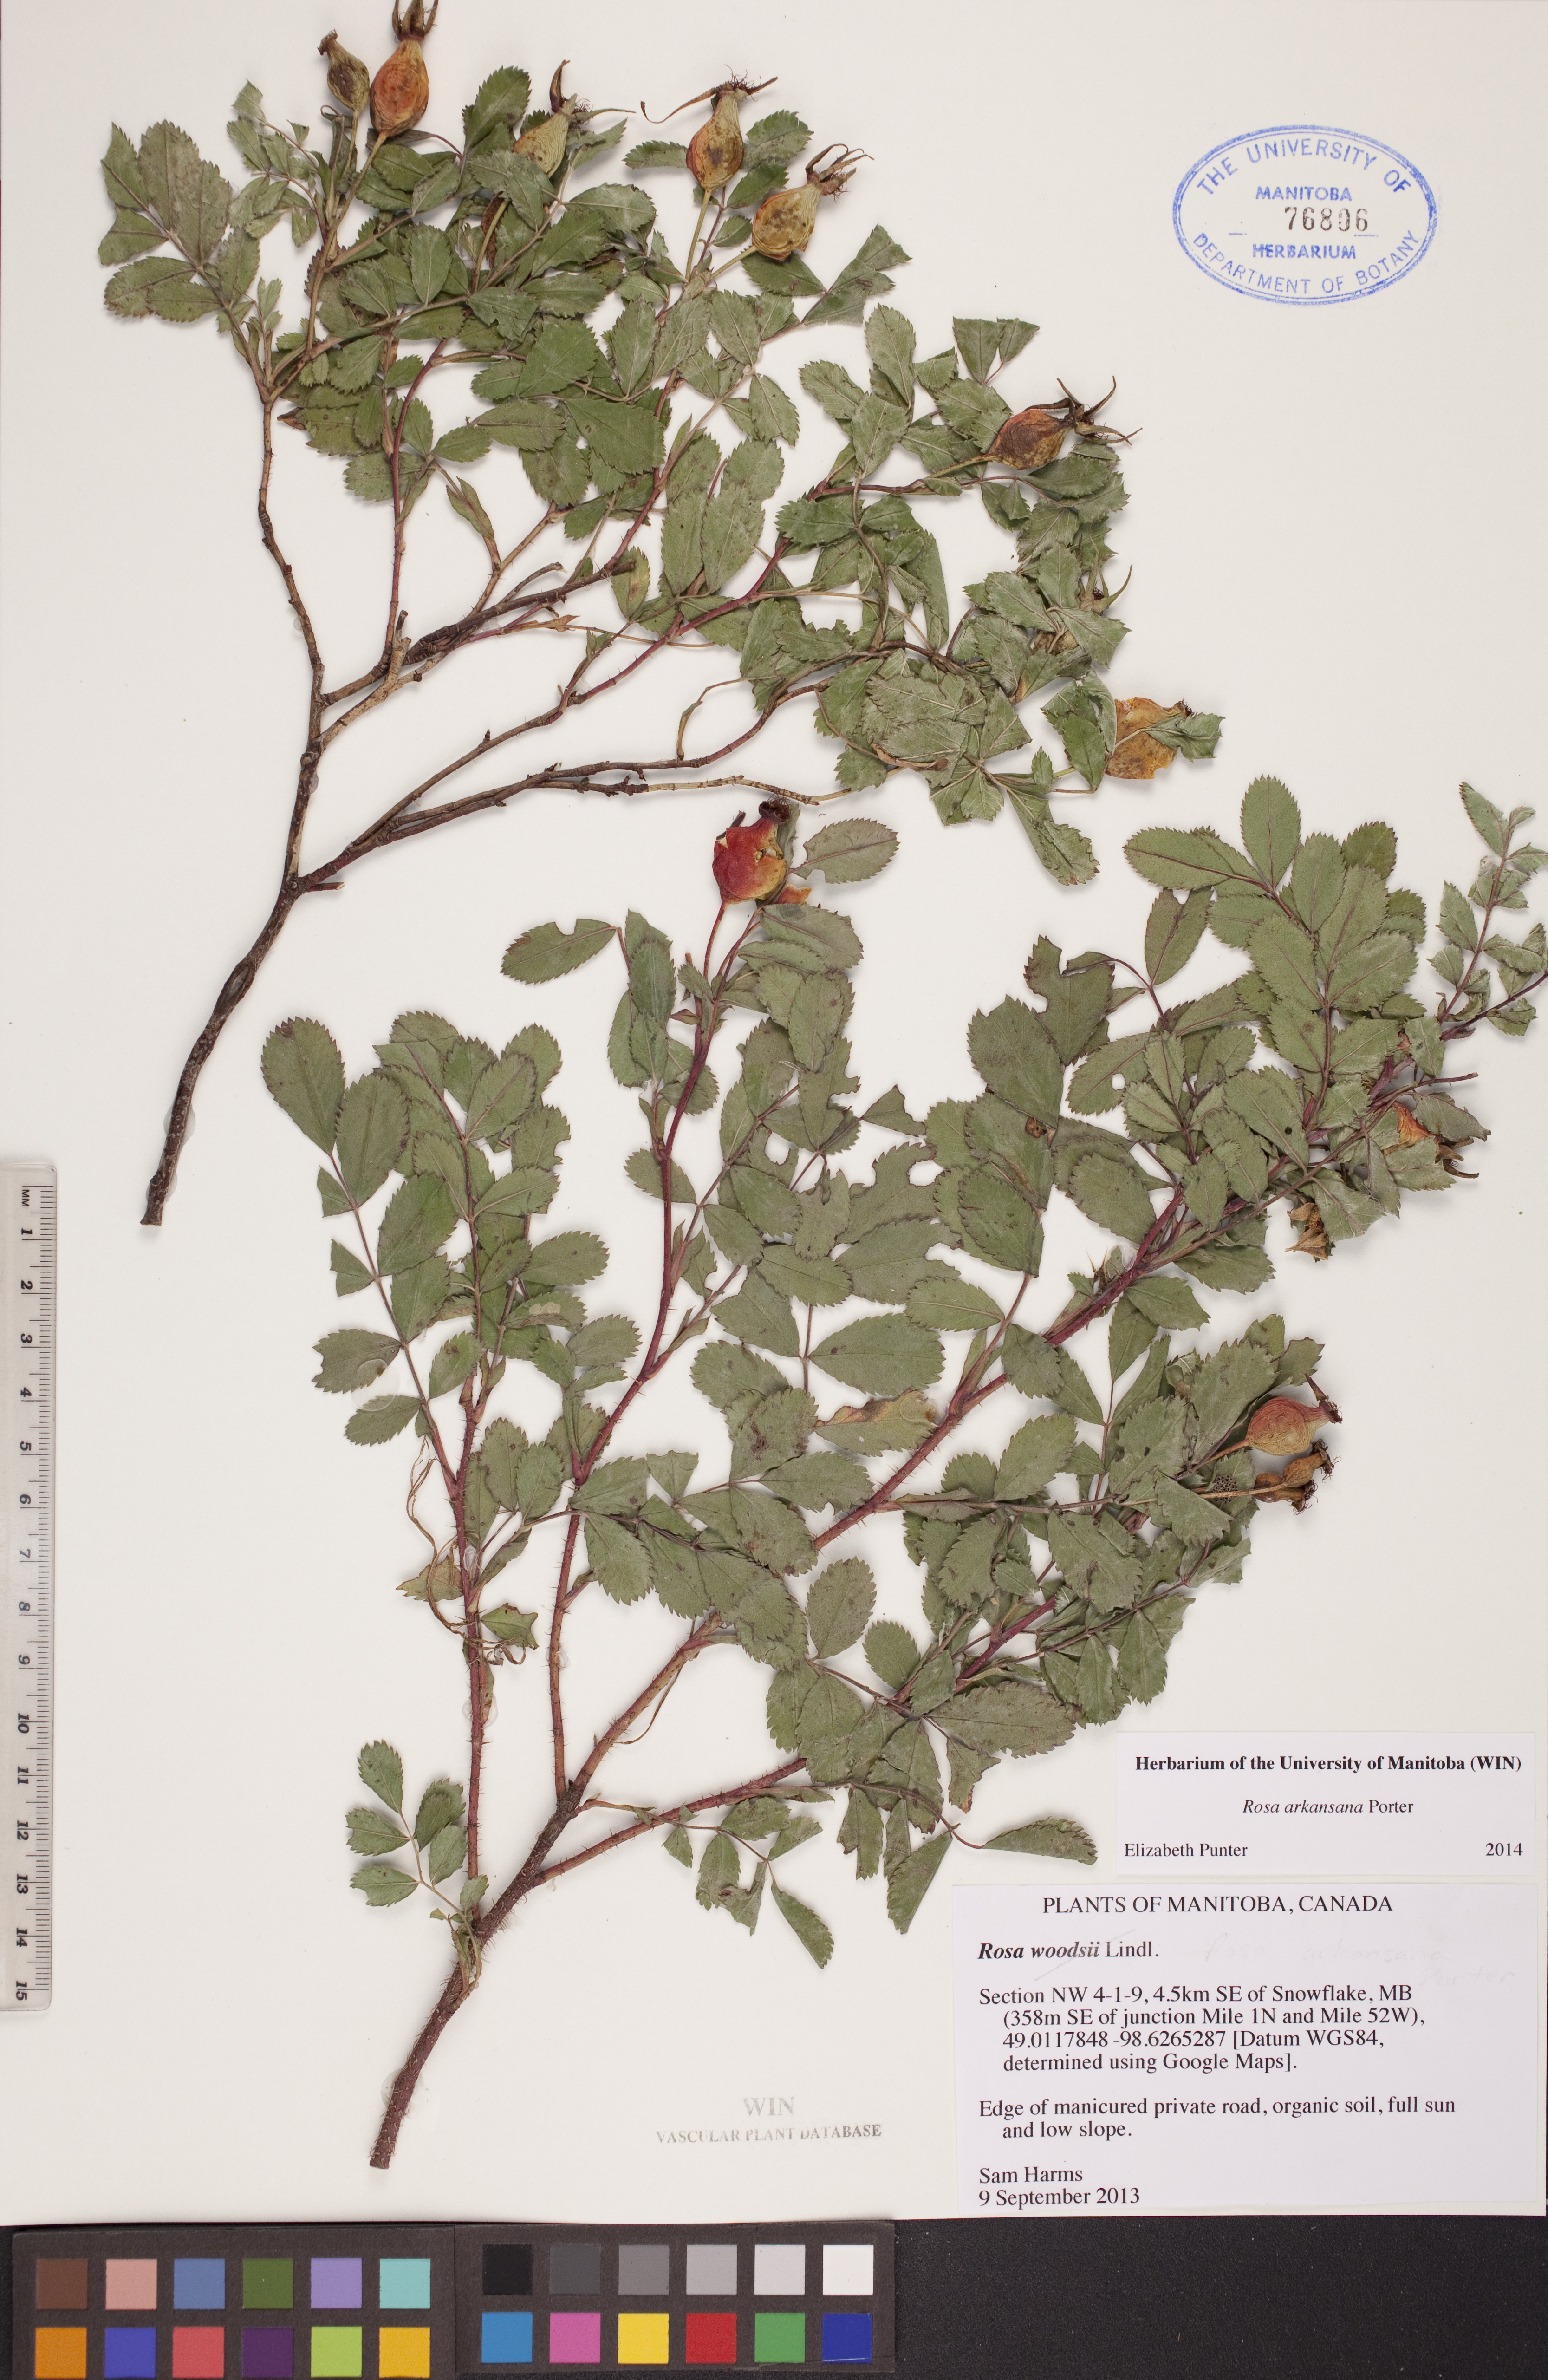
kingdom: Plantae
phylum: Tracheophyta
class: Magnoliopsida
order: Rosales
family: Rosaceae
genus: Rosa
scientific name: Rosa arkansana
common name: Prairie rose
